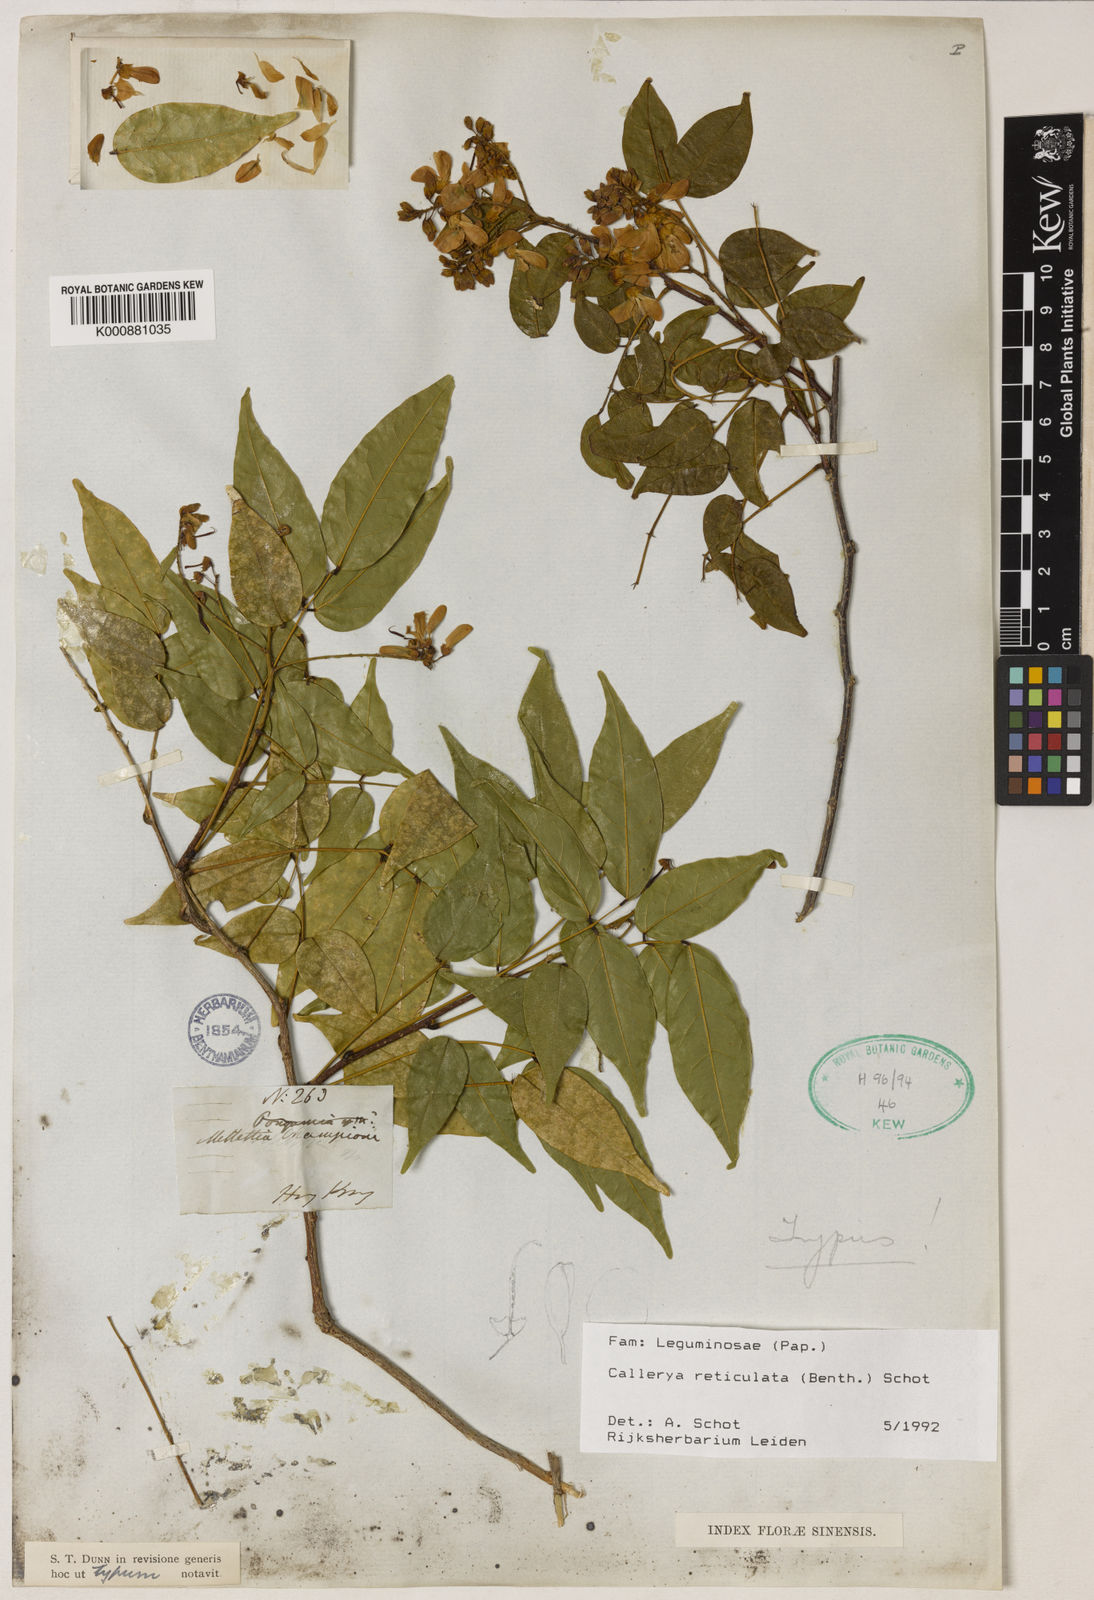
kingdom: Plantae
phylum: Tracheophyta
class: Magnoliopsida
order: Fabales
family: Fabaceae
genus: Wisteriopsis
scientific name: Wisteriopsis reticulata
